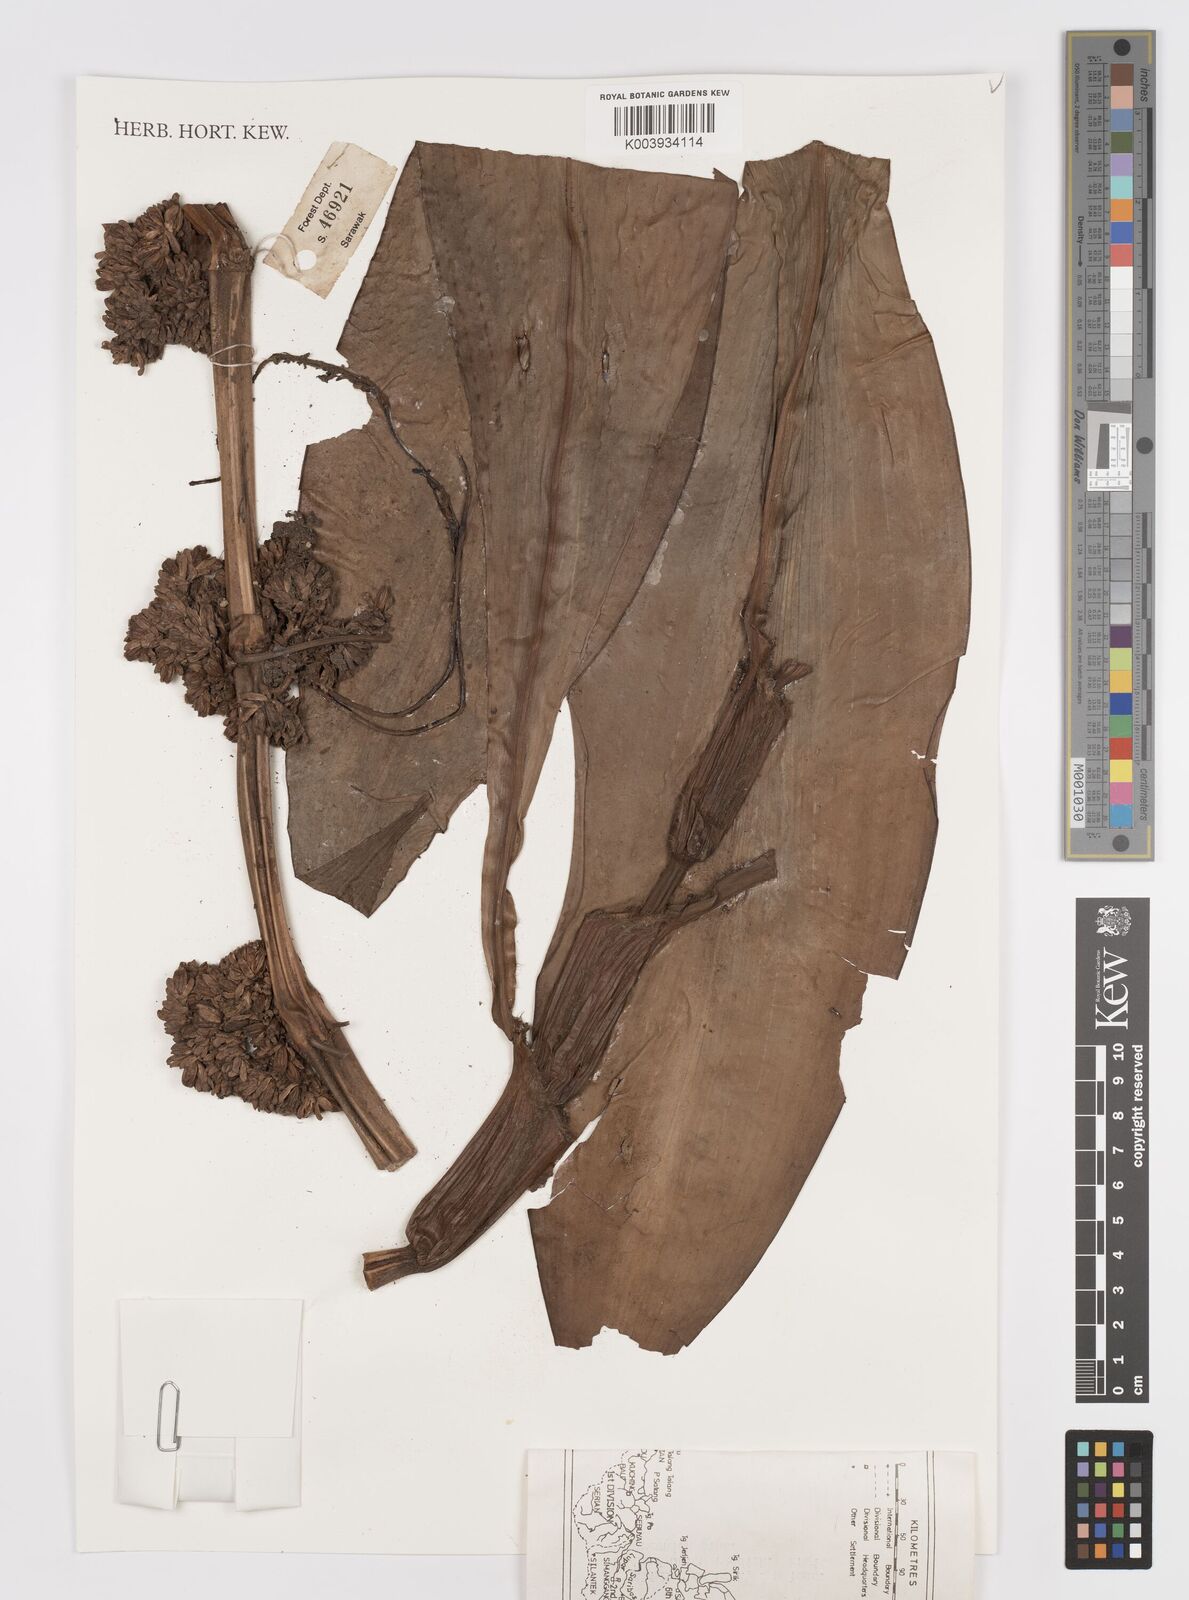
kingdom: Plantae
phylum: Tracheophyta
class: Liliopsida
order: Commelinales
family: Commelinaceae
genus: Amischotolype
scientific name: Amischotolype
